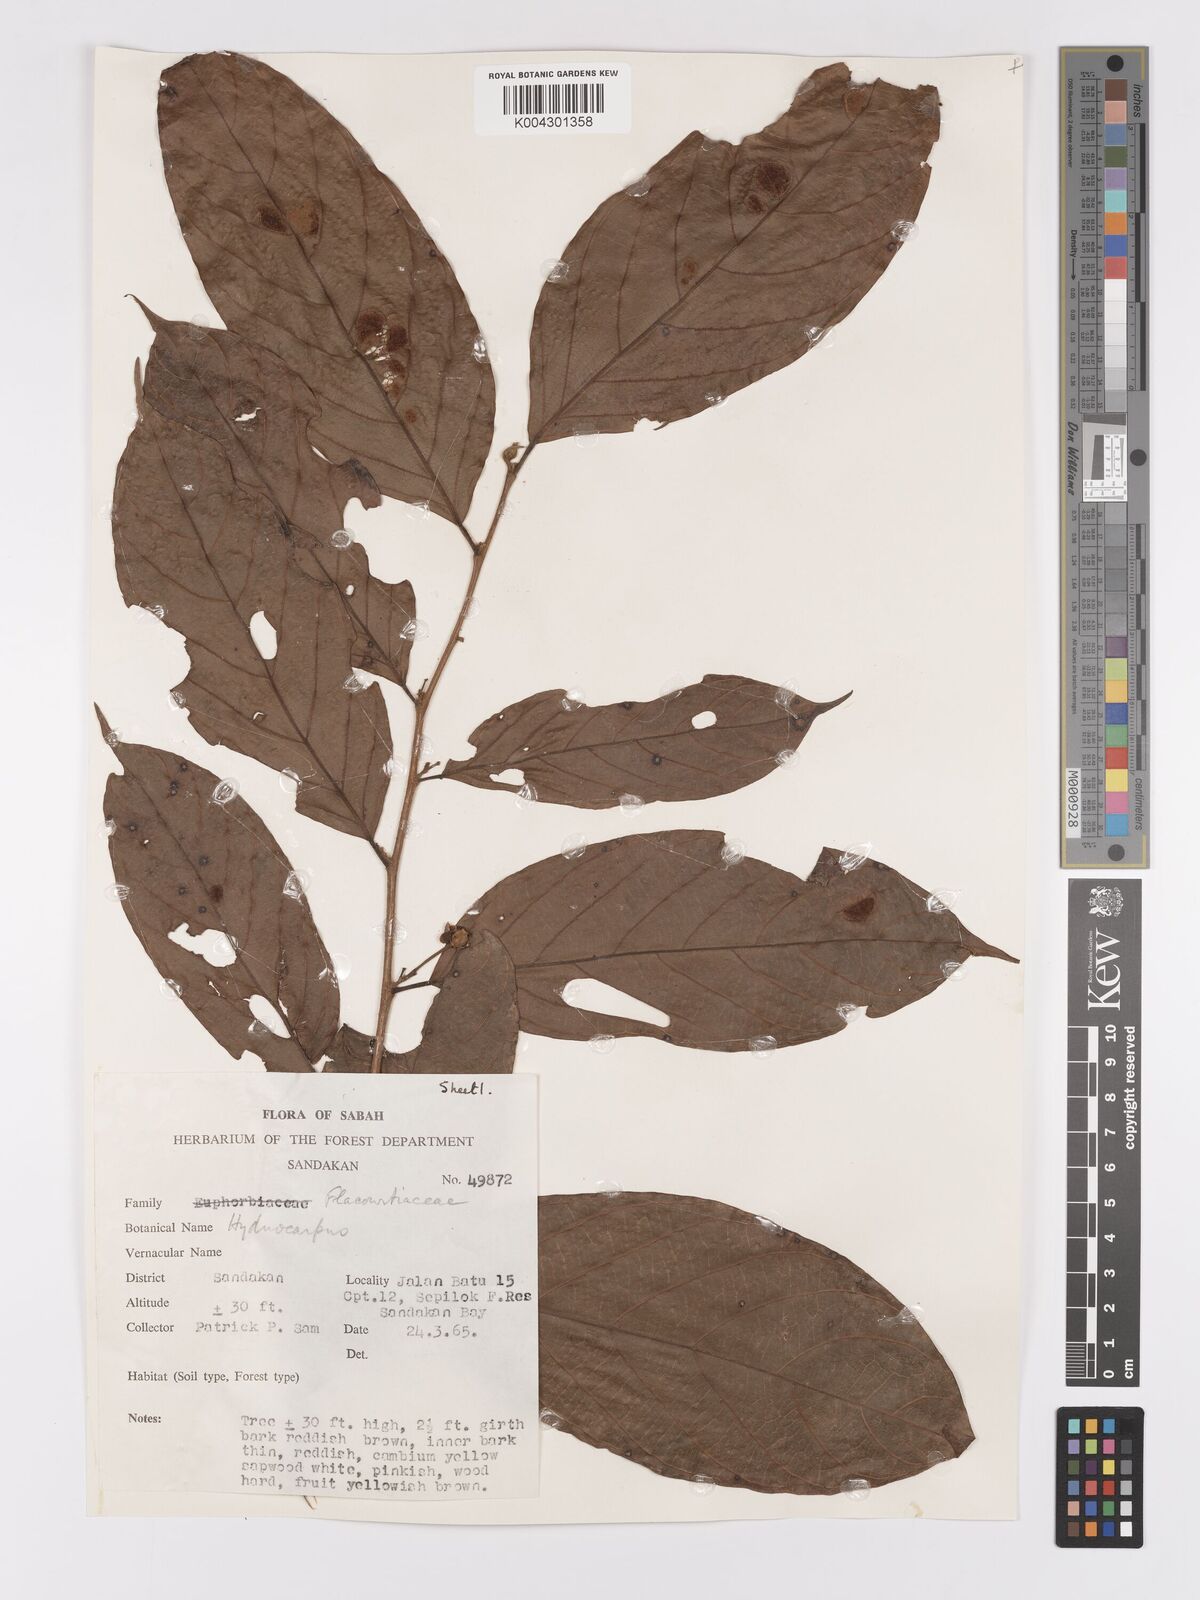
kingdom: Plantae
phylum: Tracheophyta
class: Magnoliopsida
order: Malpighiales
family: Achariaceae
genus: Hydnocarpus
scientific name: Hydnocarpus
